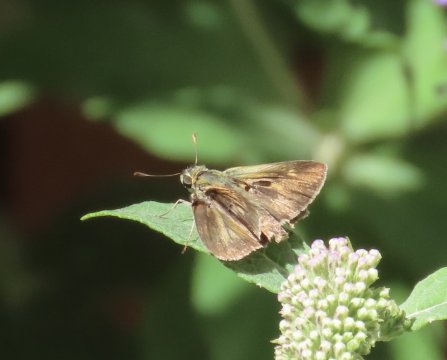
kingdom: Animalia
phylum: Arthropoda
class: Insecta
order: Lepidoptera
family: Hesperiidae
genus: Polites
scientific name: Polites egeremet
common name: Northern Broken-Dash
